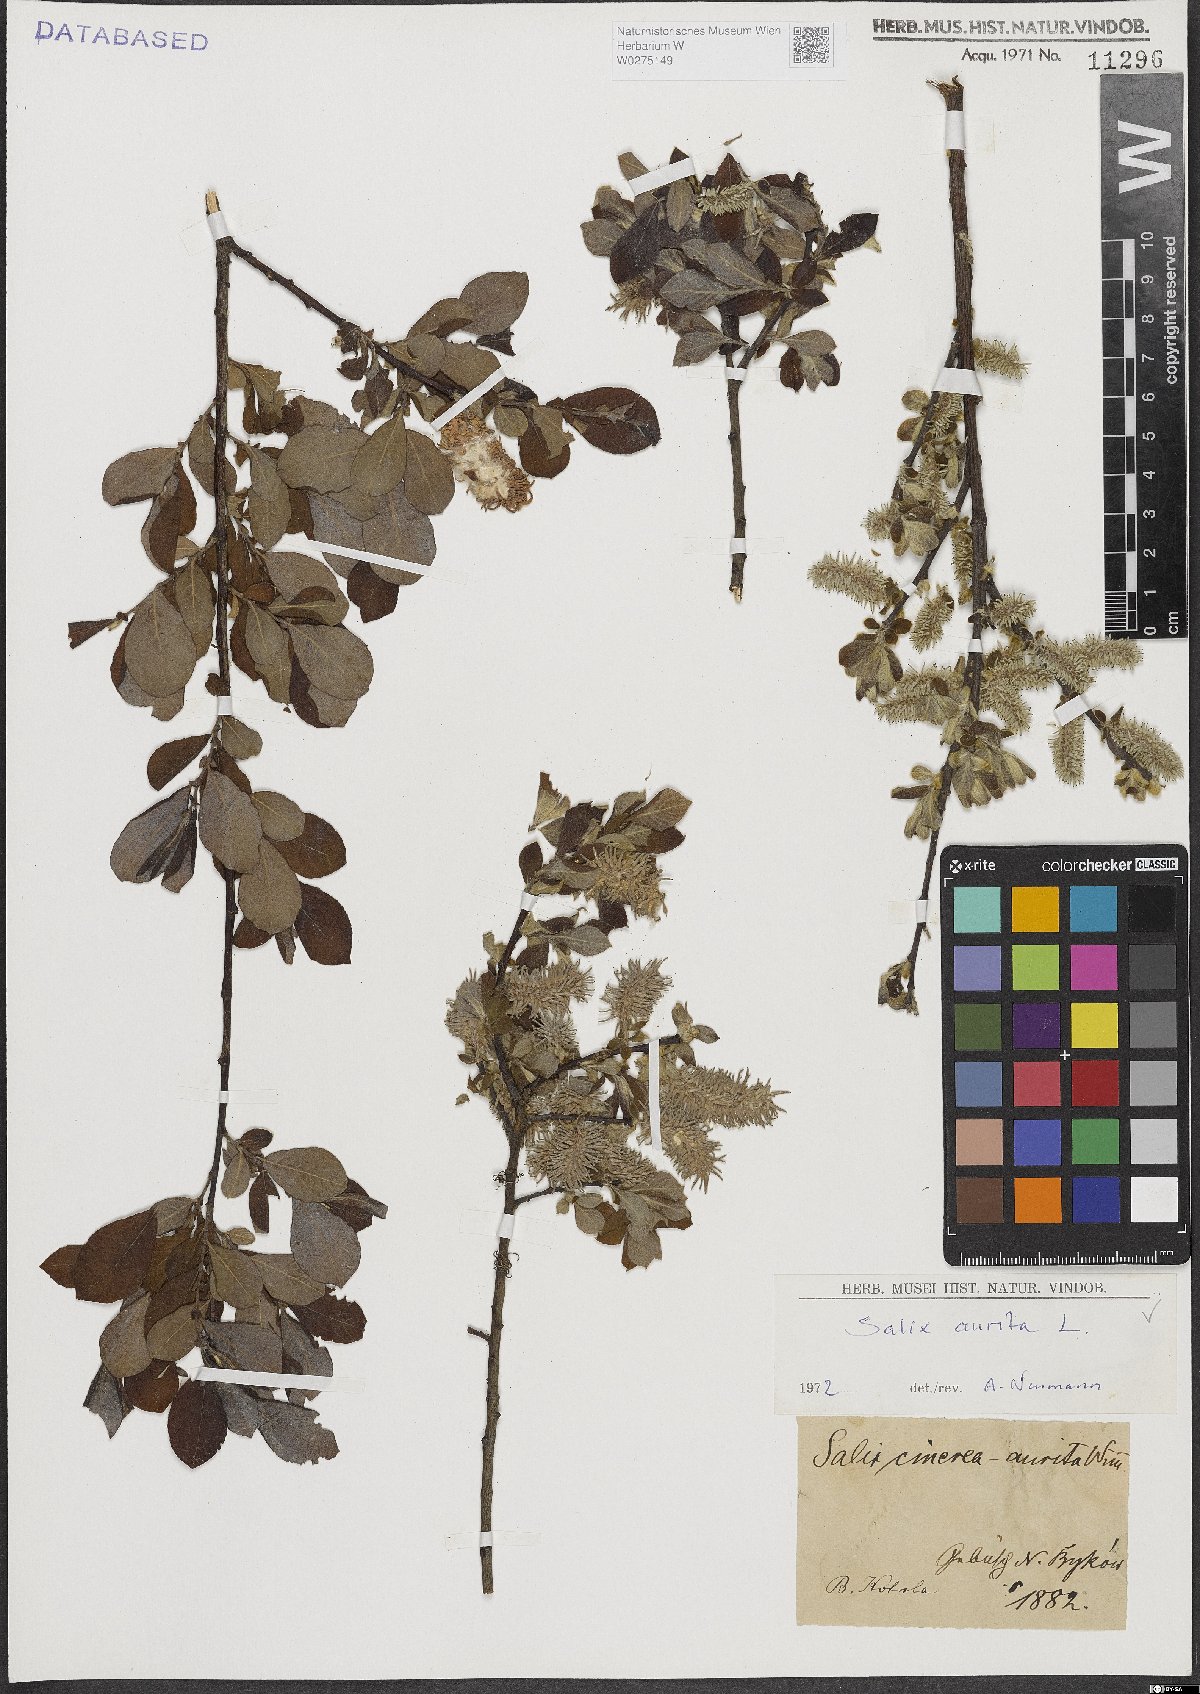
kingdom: Plantae
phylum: Tracheophyta
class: Magnoliopsida
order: Malpighiales
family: Salicaceae
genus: Salix
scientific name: Salix aurita
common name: Eared willow
